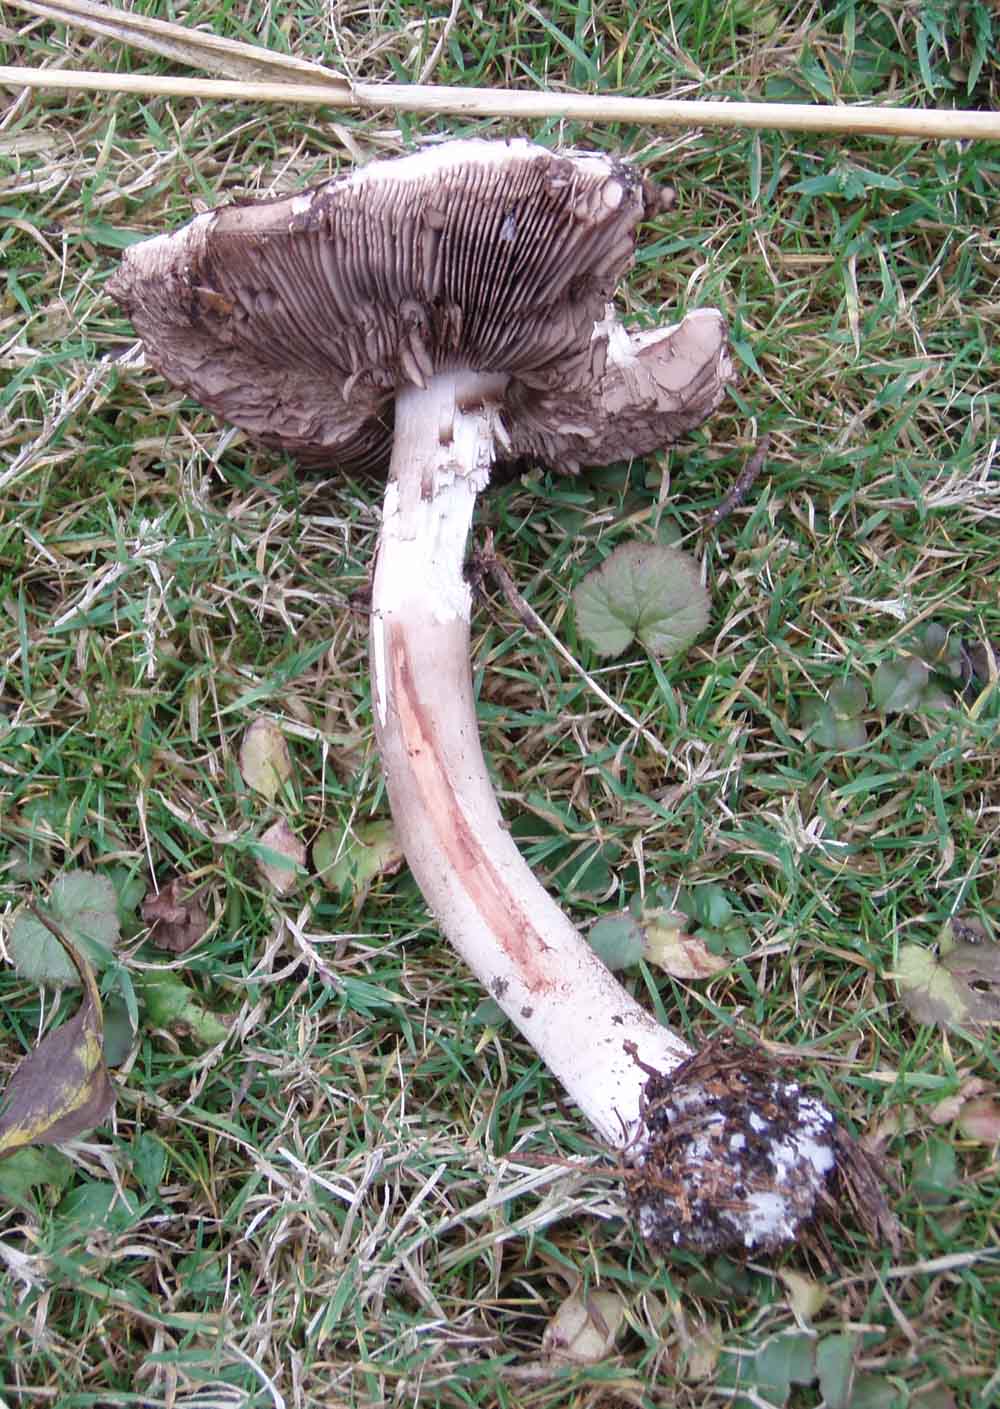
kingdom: Fungi
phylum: Basidiomycota
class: Agaricomycetes
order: Agaricales
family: Agaricaceae
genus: Agaricus
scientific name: Agaricus sylvaticus
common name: lille blod-champignon
